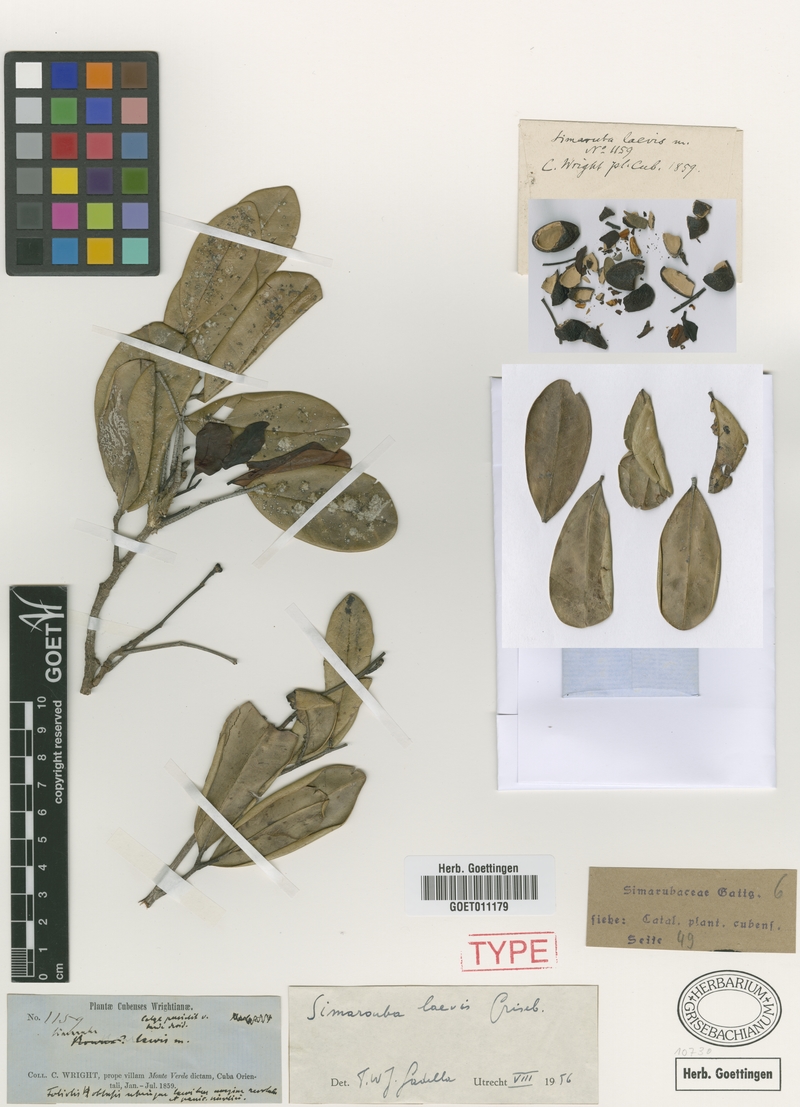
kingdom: Plantae
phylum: Tracheophyta
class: Magnoliopsida
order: Sapindales
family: Simaroubaceae
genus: Simarouba
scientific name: Simarouba laevis
